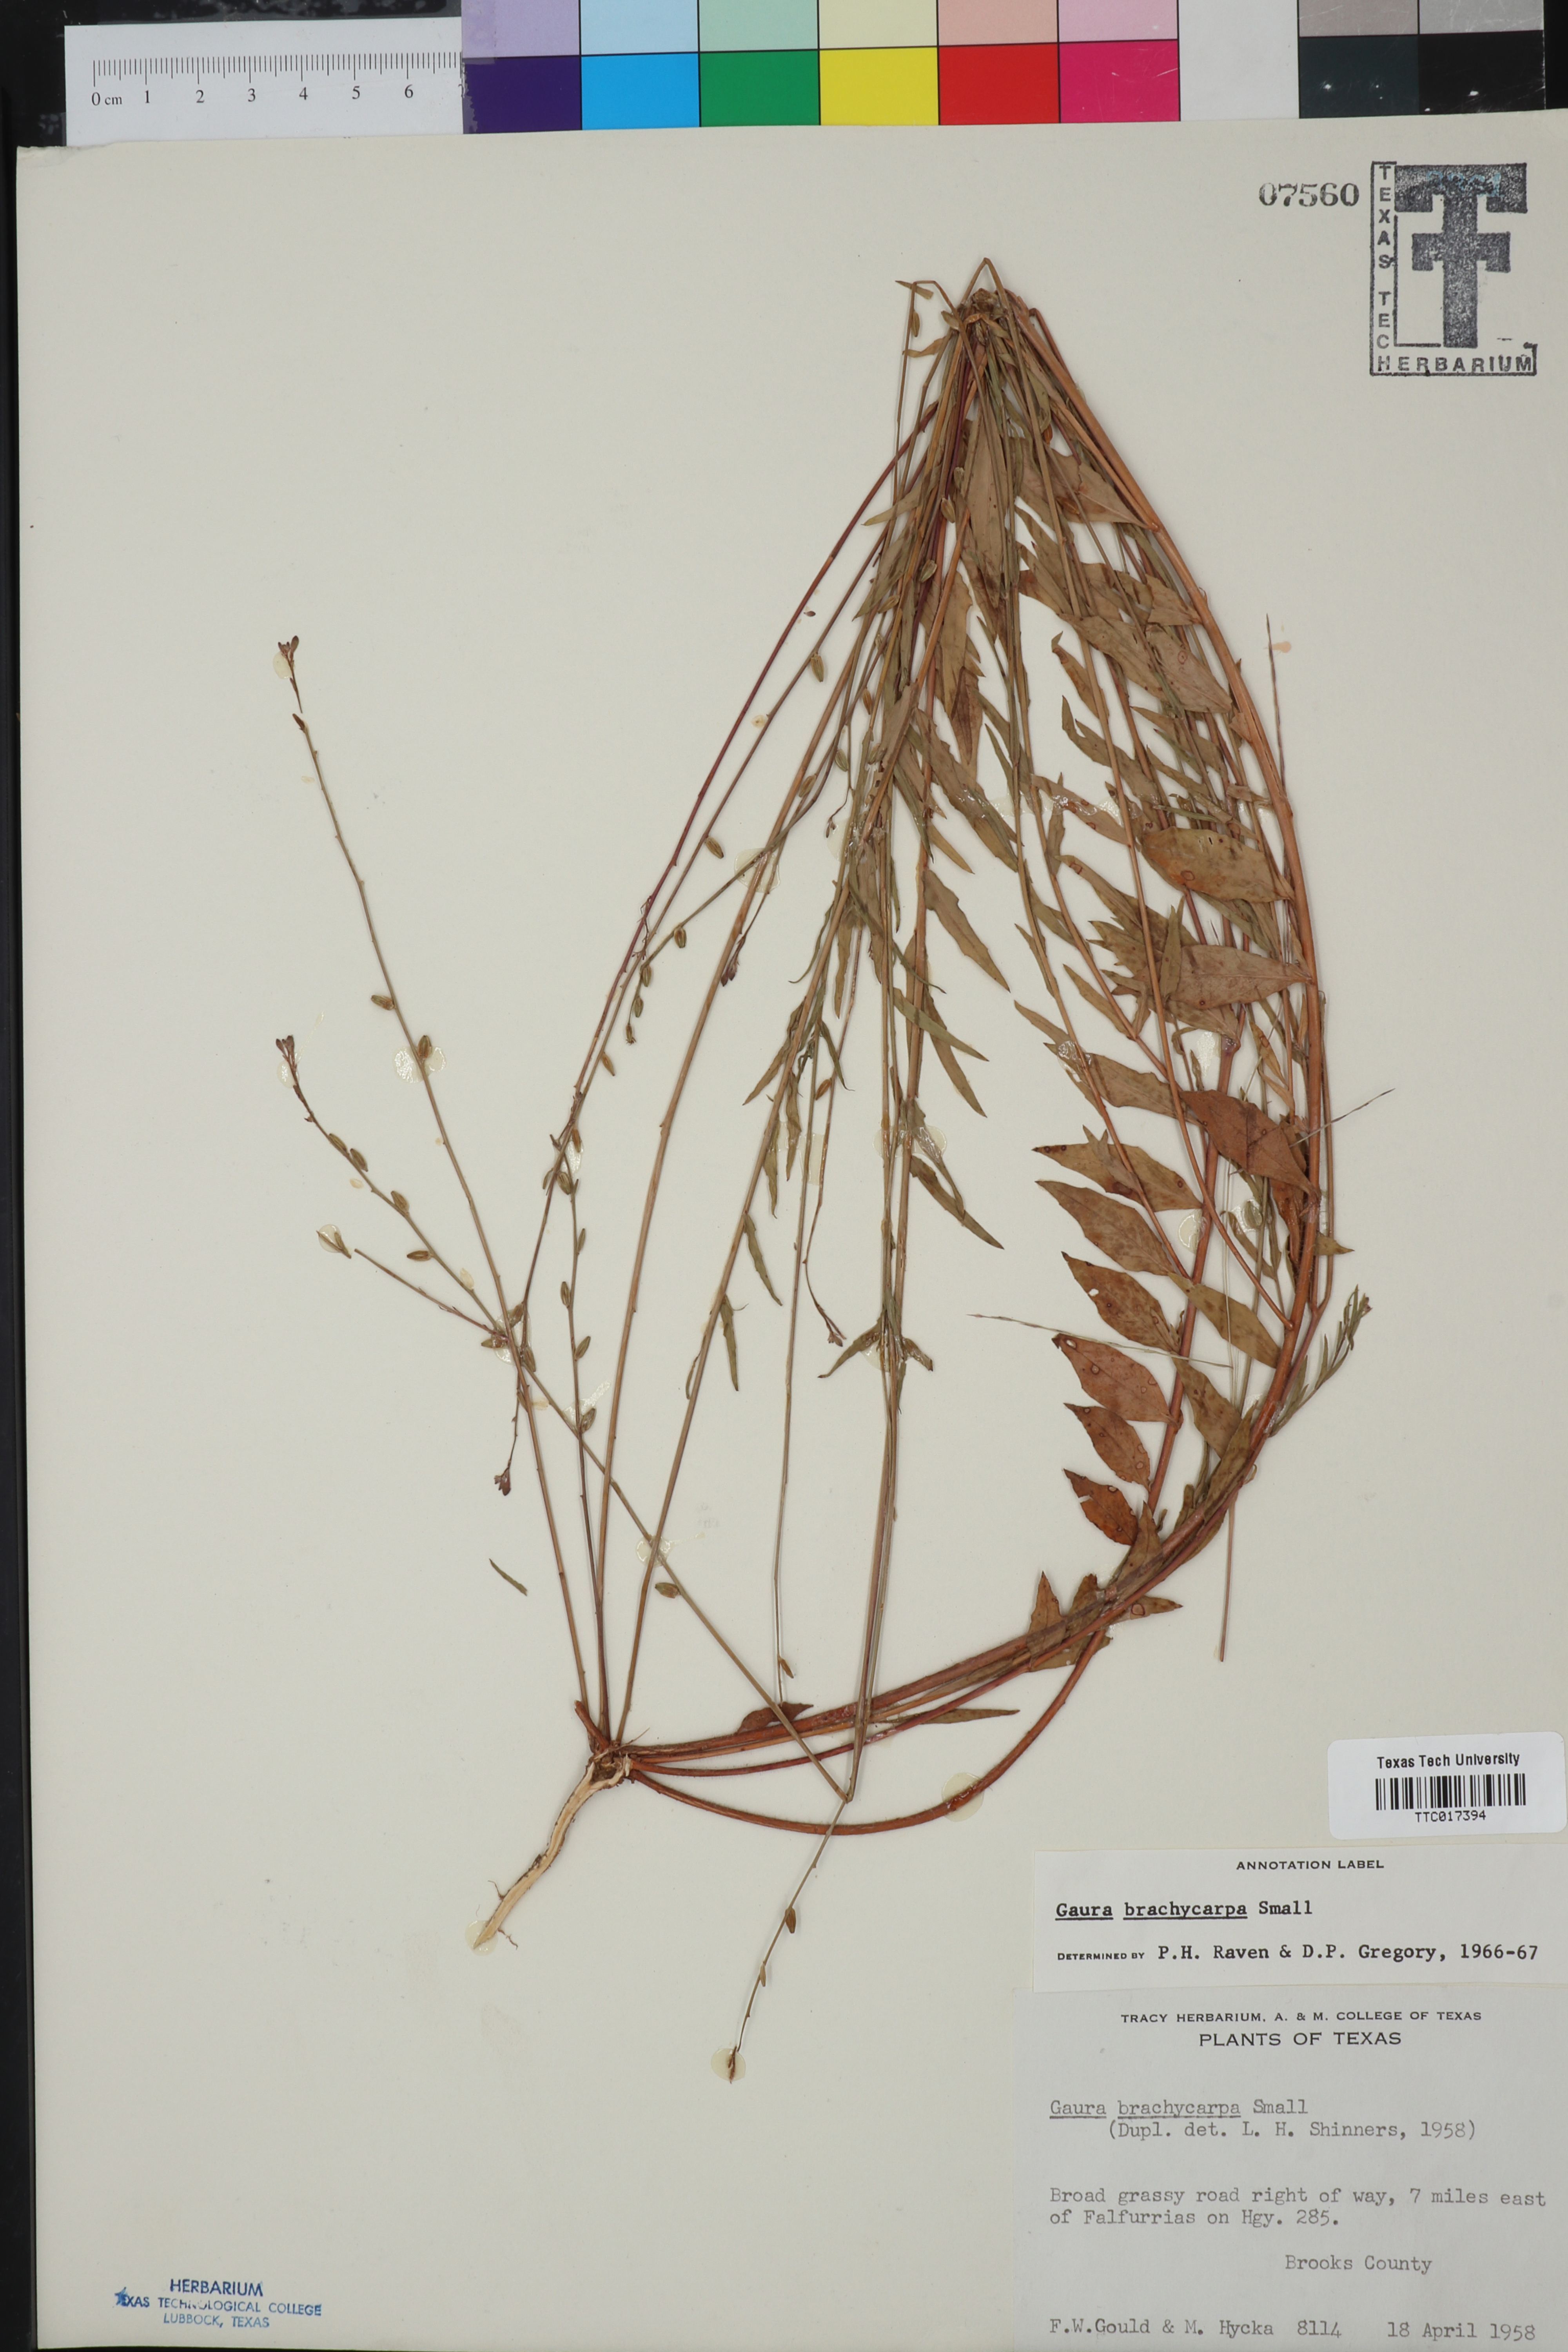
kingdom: Plantae
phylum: Tracheophyta
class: Magnoliopsida
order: Myrtales
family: Onagraceae
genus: Oenothera
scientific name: Oenothera patriciae
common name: Plains beeblossom
